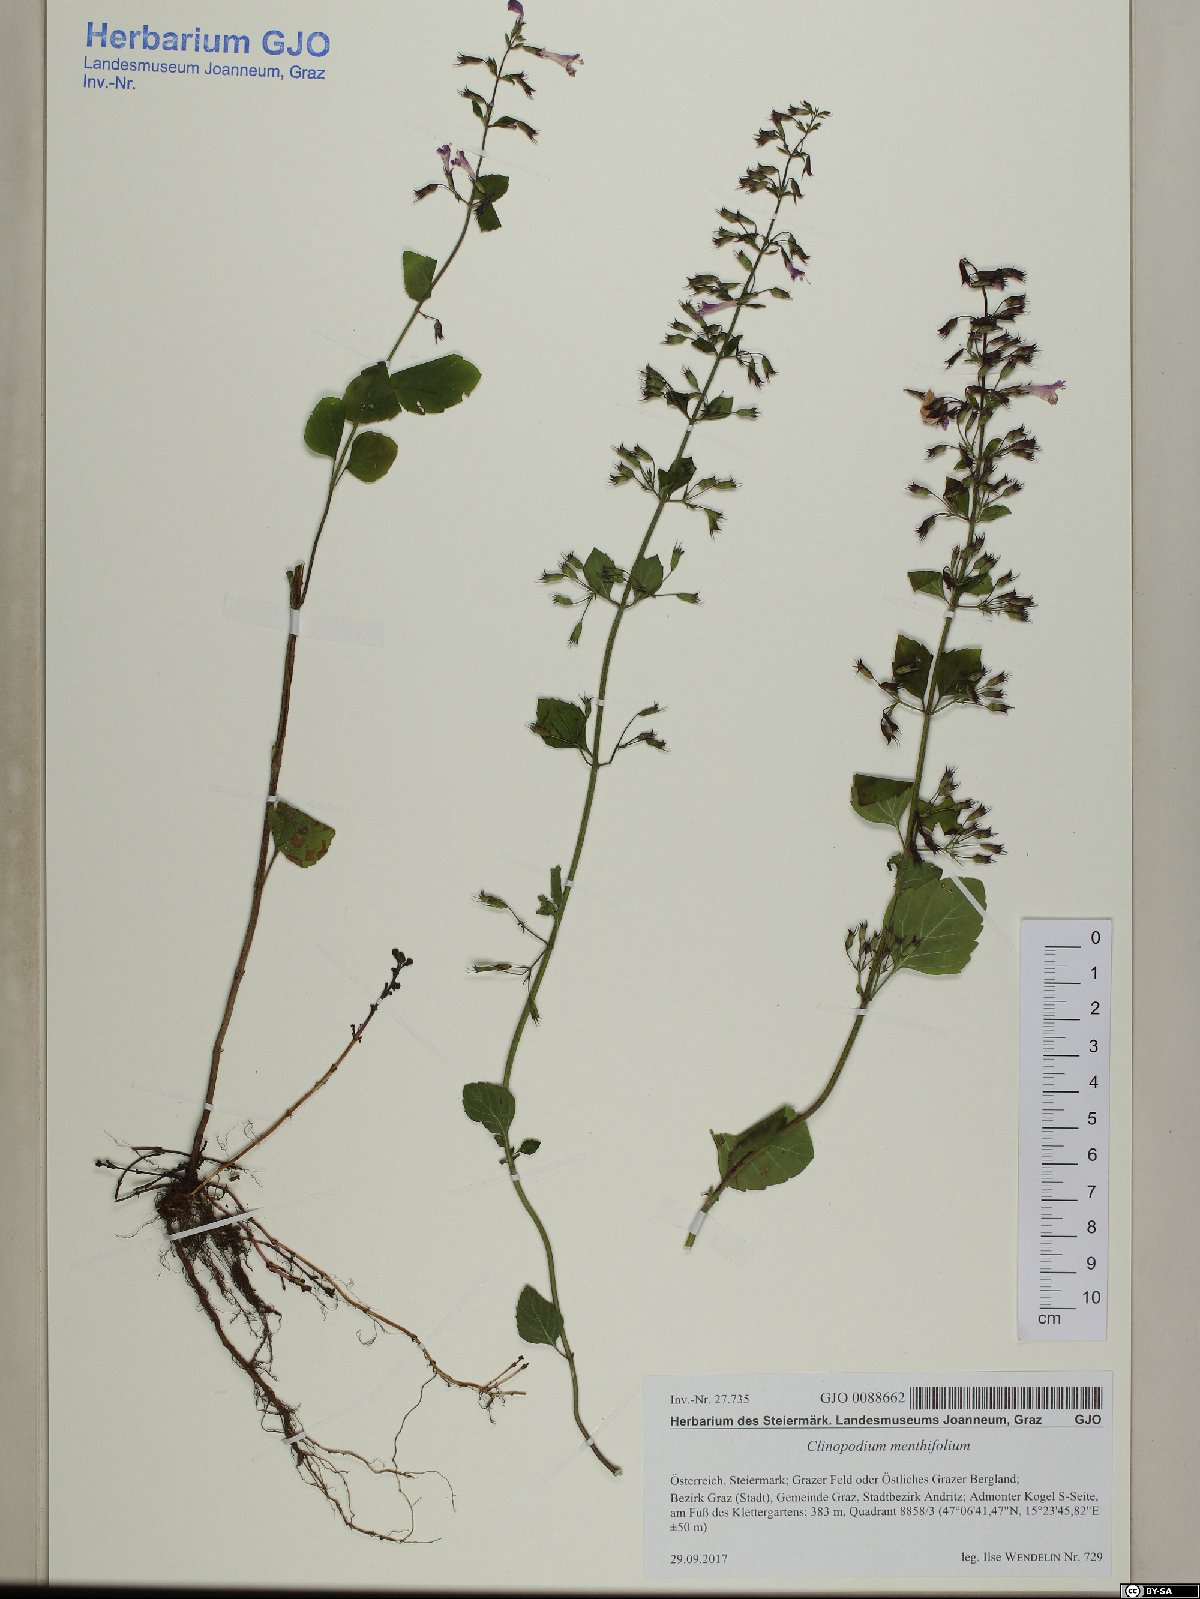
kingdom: Plantae
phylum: Tracheophyta
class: Magnoliopsida
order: Lamiales
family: Lamiaceae
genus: Clinopodium
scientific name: Clinopodium menthifolium
